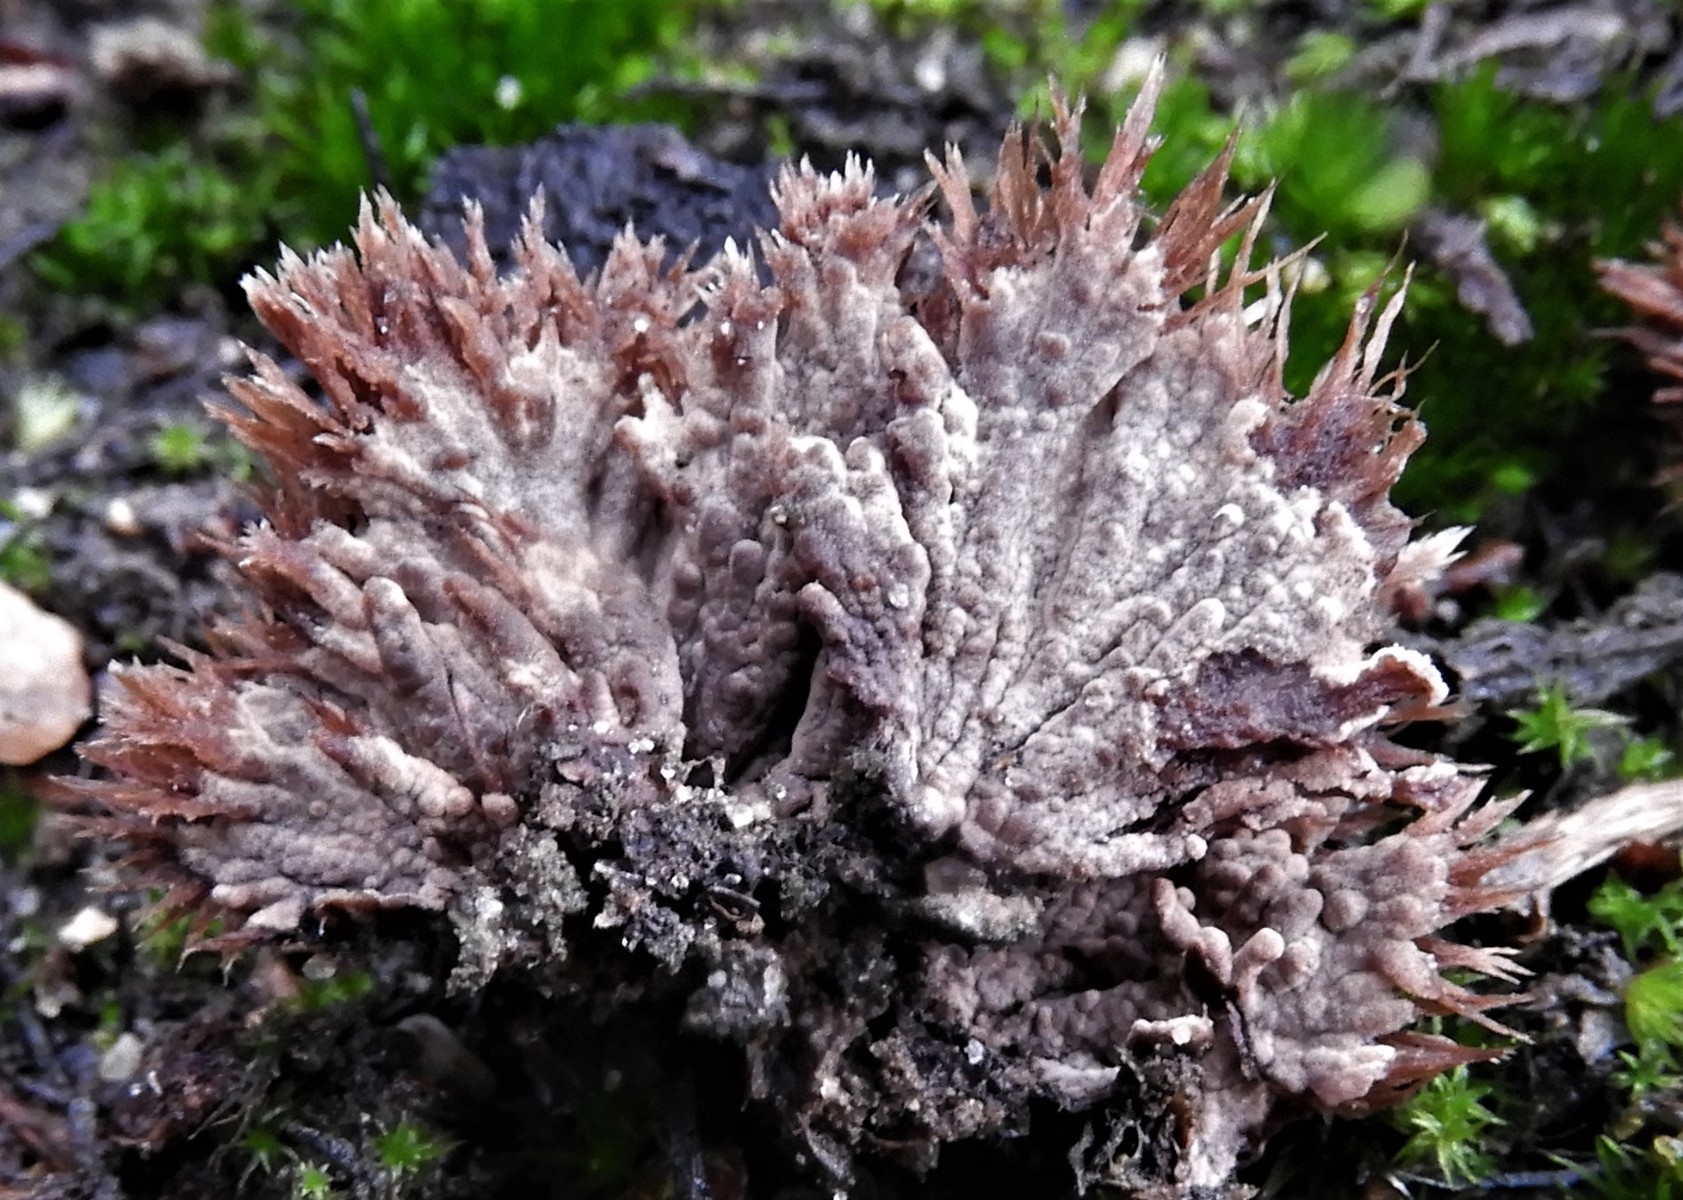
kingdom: Fungi
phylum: Basidiomycota
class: Agaricomycetes
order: Thelephorales
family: Thelephoraceae
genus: Thelephora
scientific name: Thelephora terrestris
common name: fliget frynsesvamp
